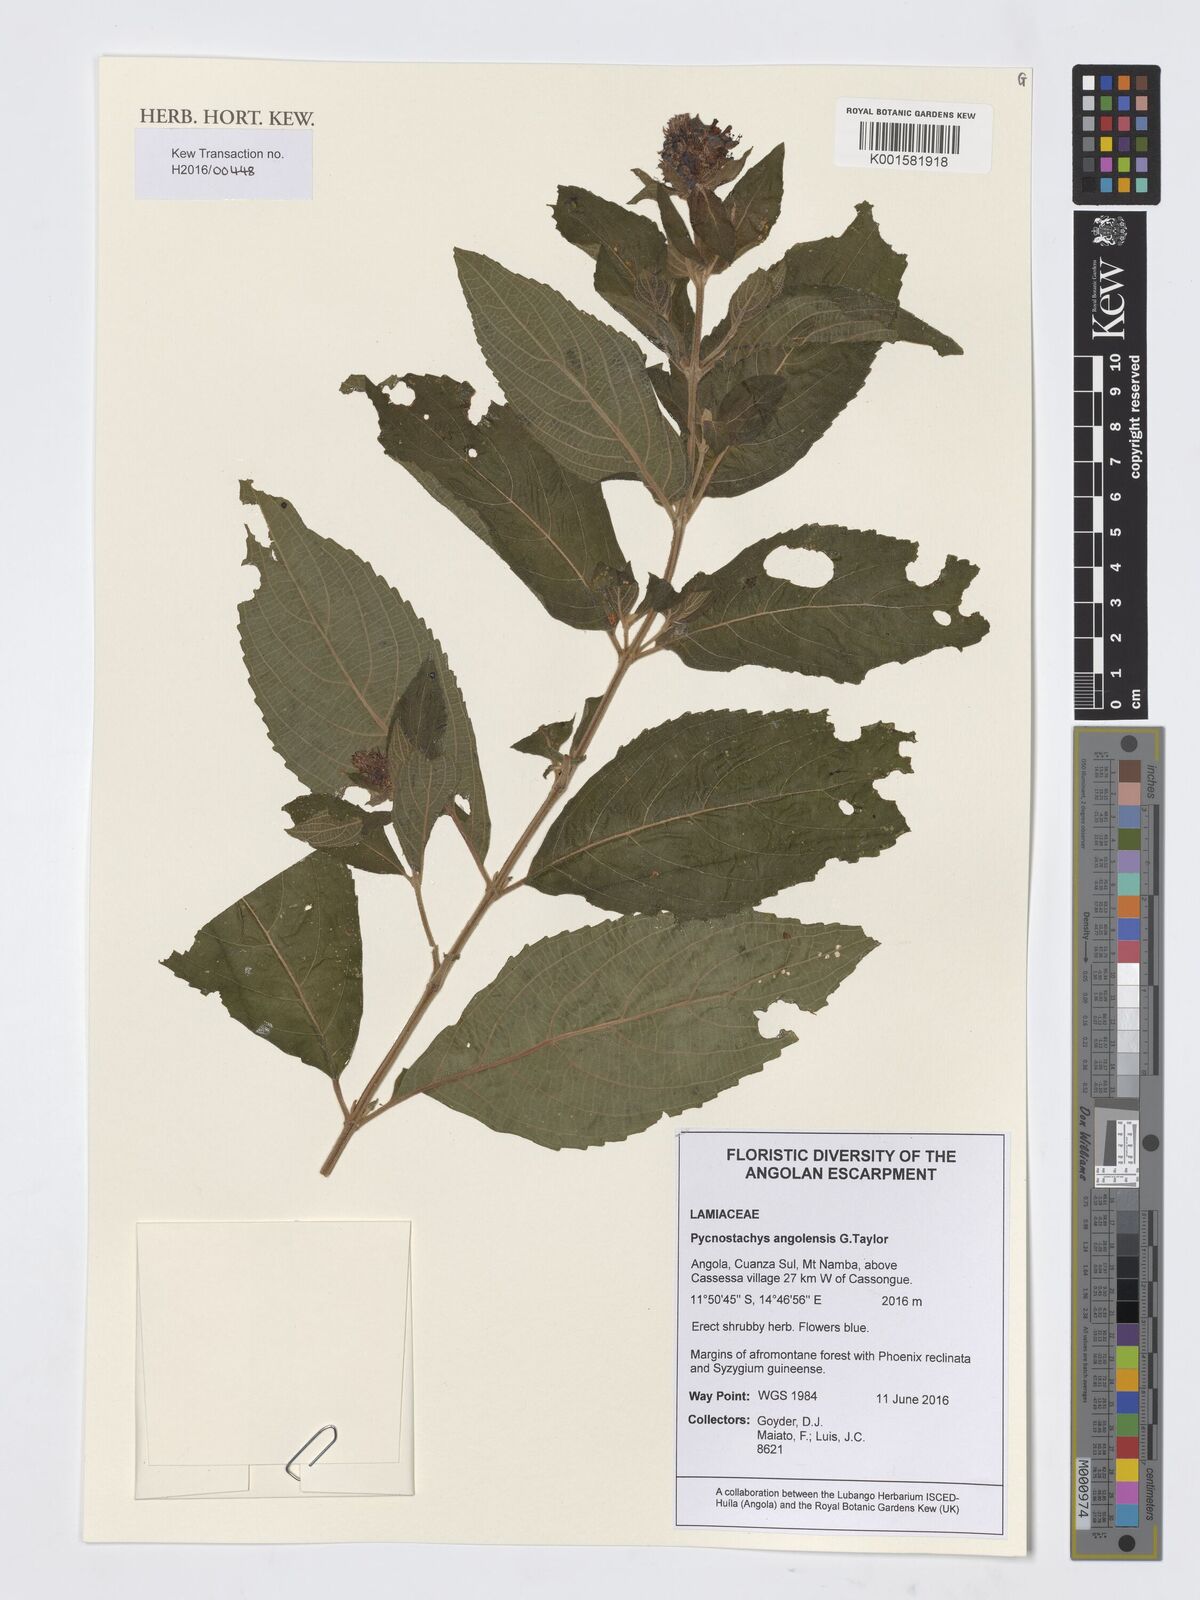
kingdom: Plantae
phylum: Tracheophyta
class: Magnoliopsida
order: Lamiales
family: Lamiaceae
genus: Coleus
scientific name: Coleus angolensis
